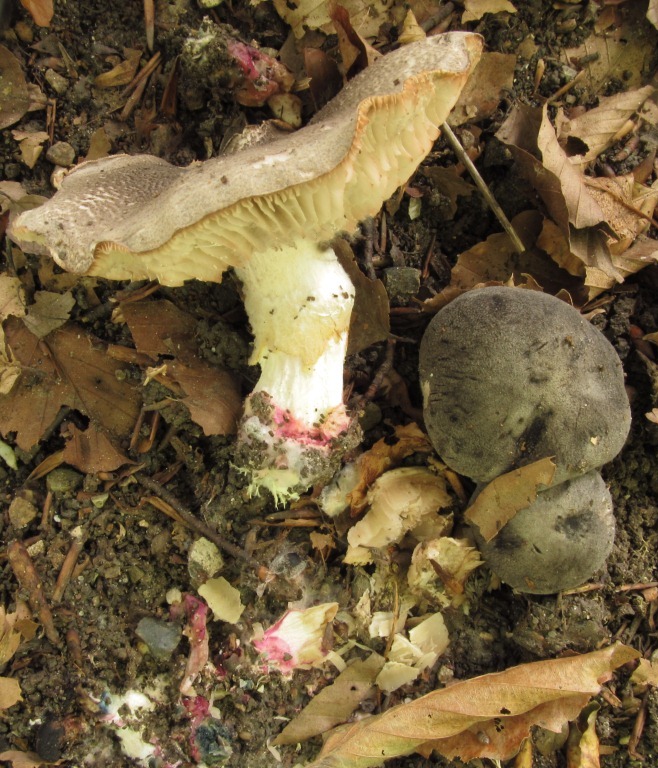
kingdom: Fungi
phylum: Basidiomycota
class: Agaricomycetes
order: Agaricales
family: Tricholomataceae
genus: Tricholoma
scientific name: Tricholoma orirubens
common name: rødbladet ridderhat
